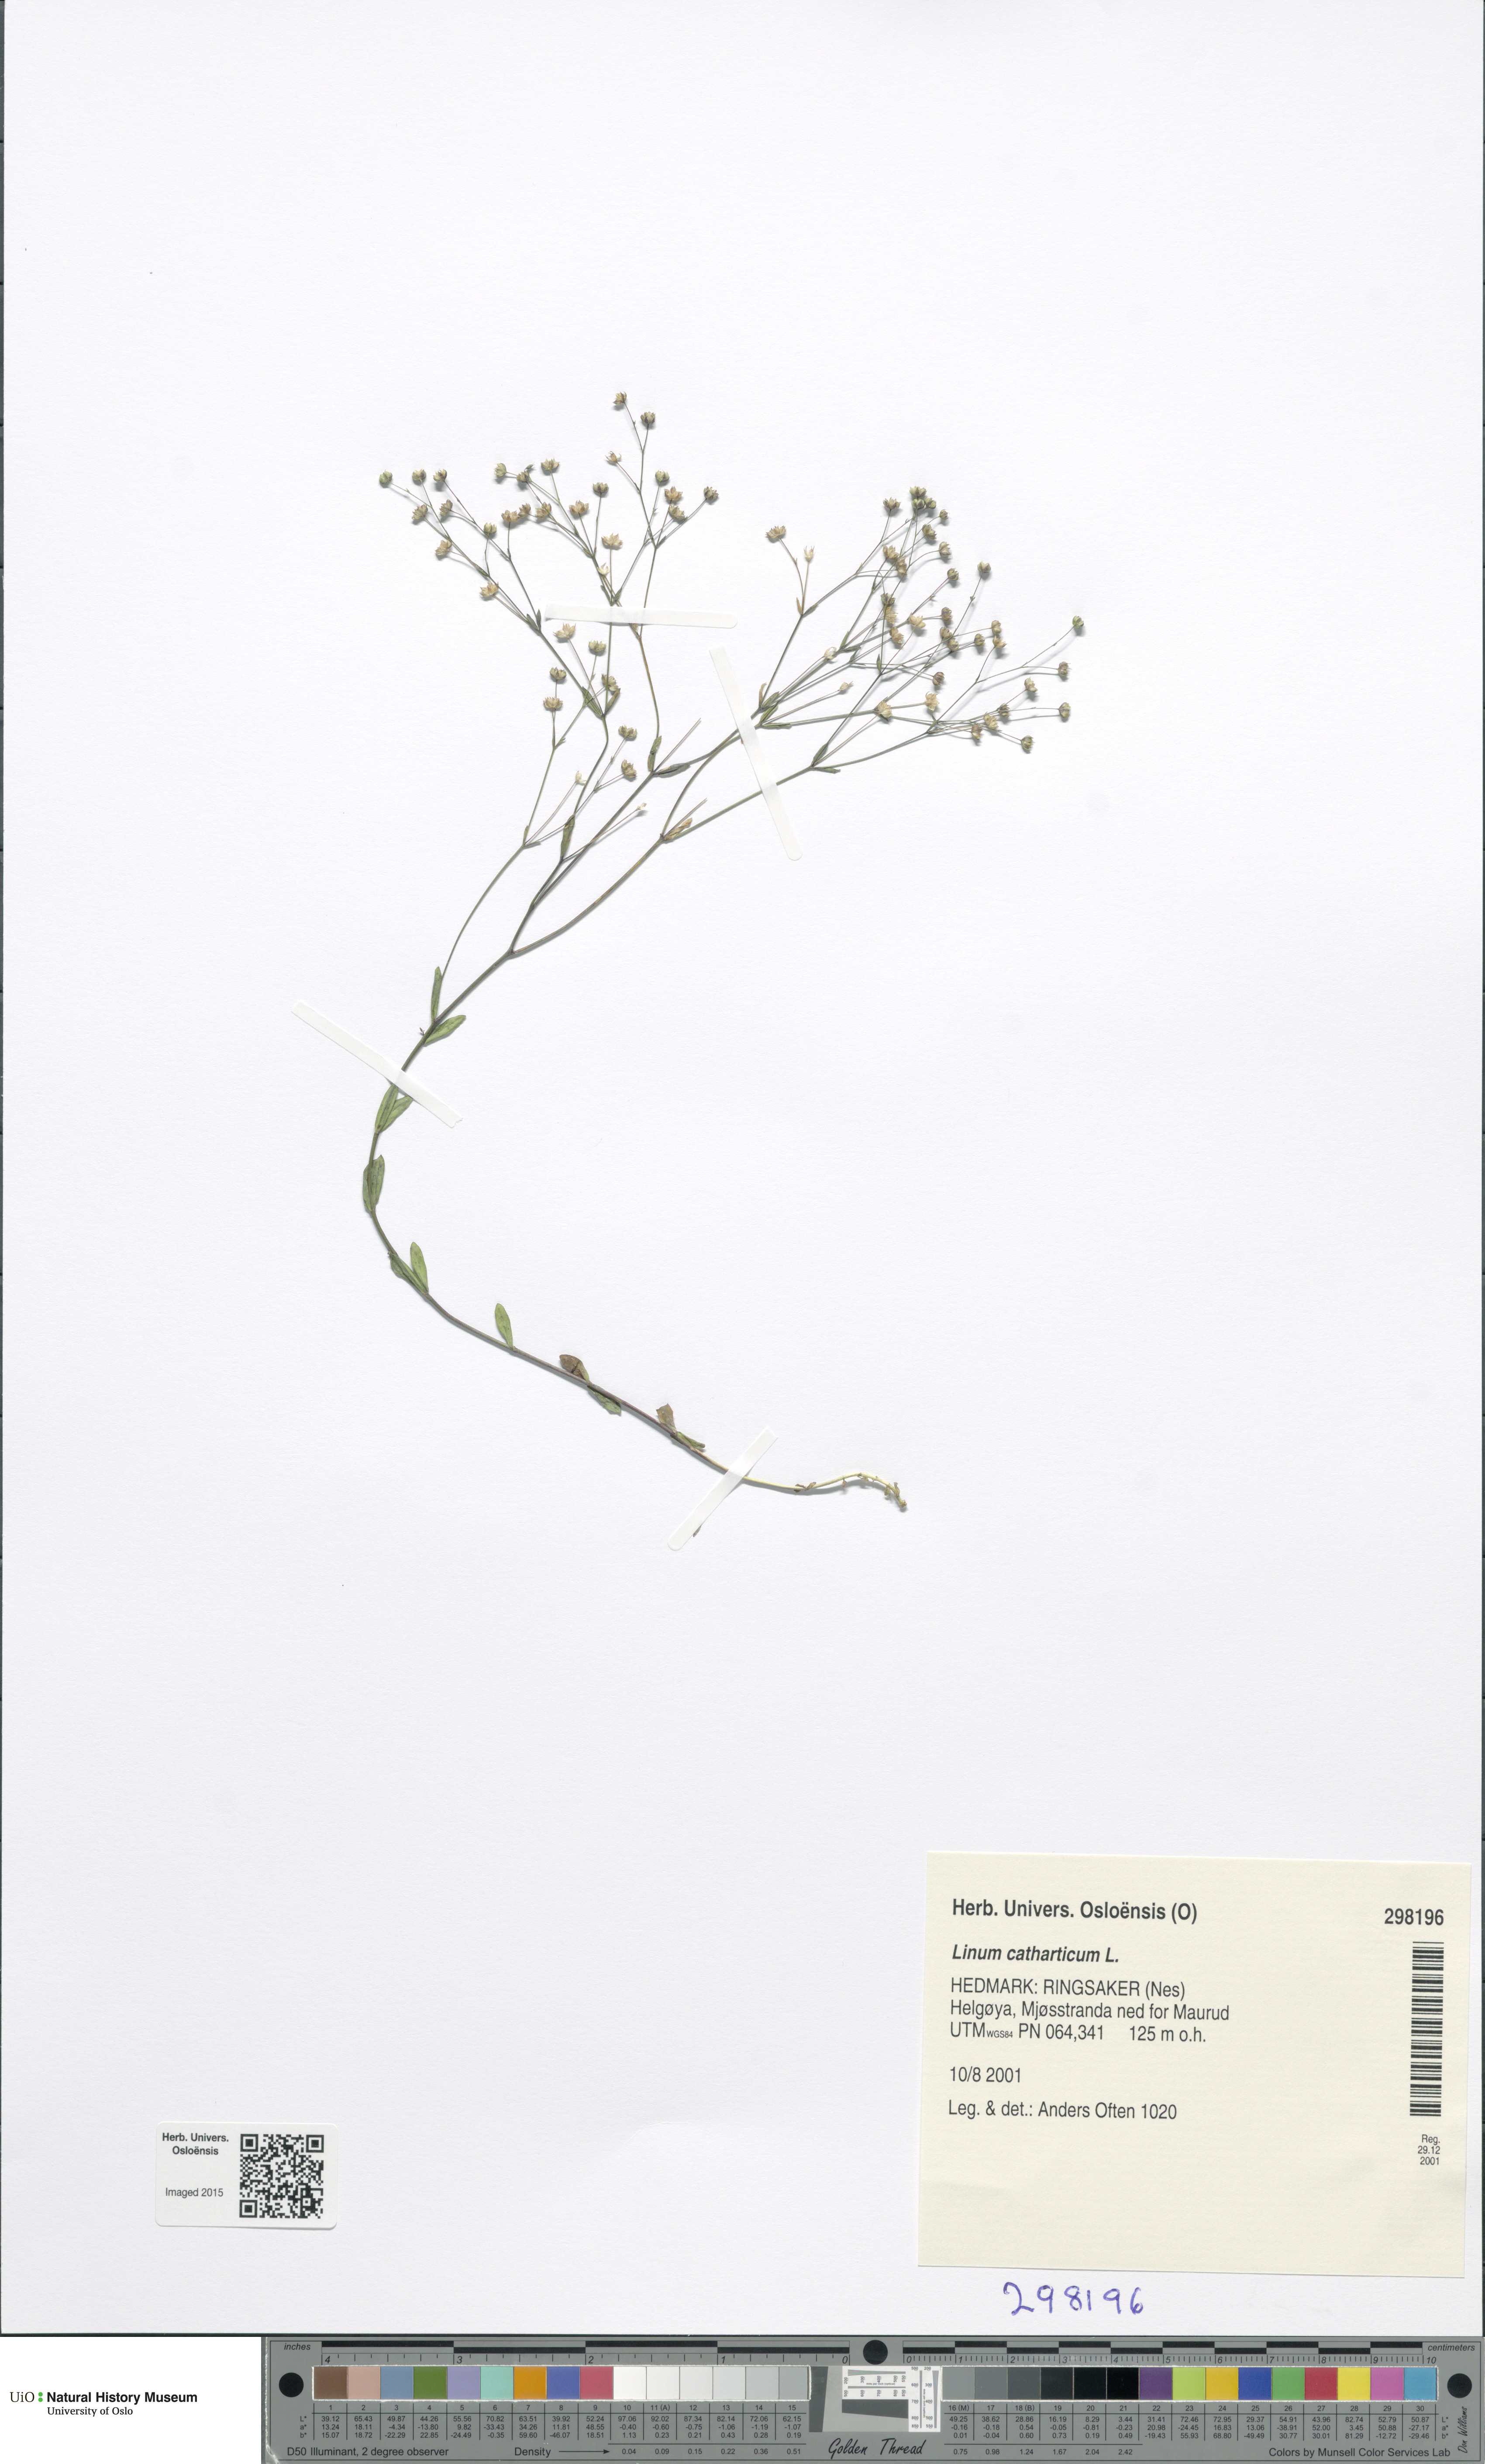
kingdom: Plantae
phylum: Tracheophyta
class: Magnoliopsida
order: Malpighiales
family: Linaceae
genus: Linum
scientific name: Linum catharticum
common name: Fairy flax
